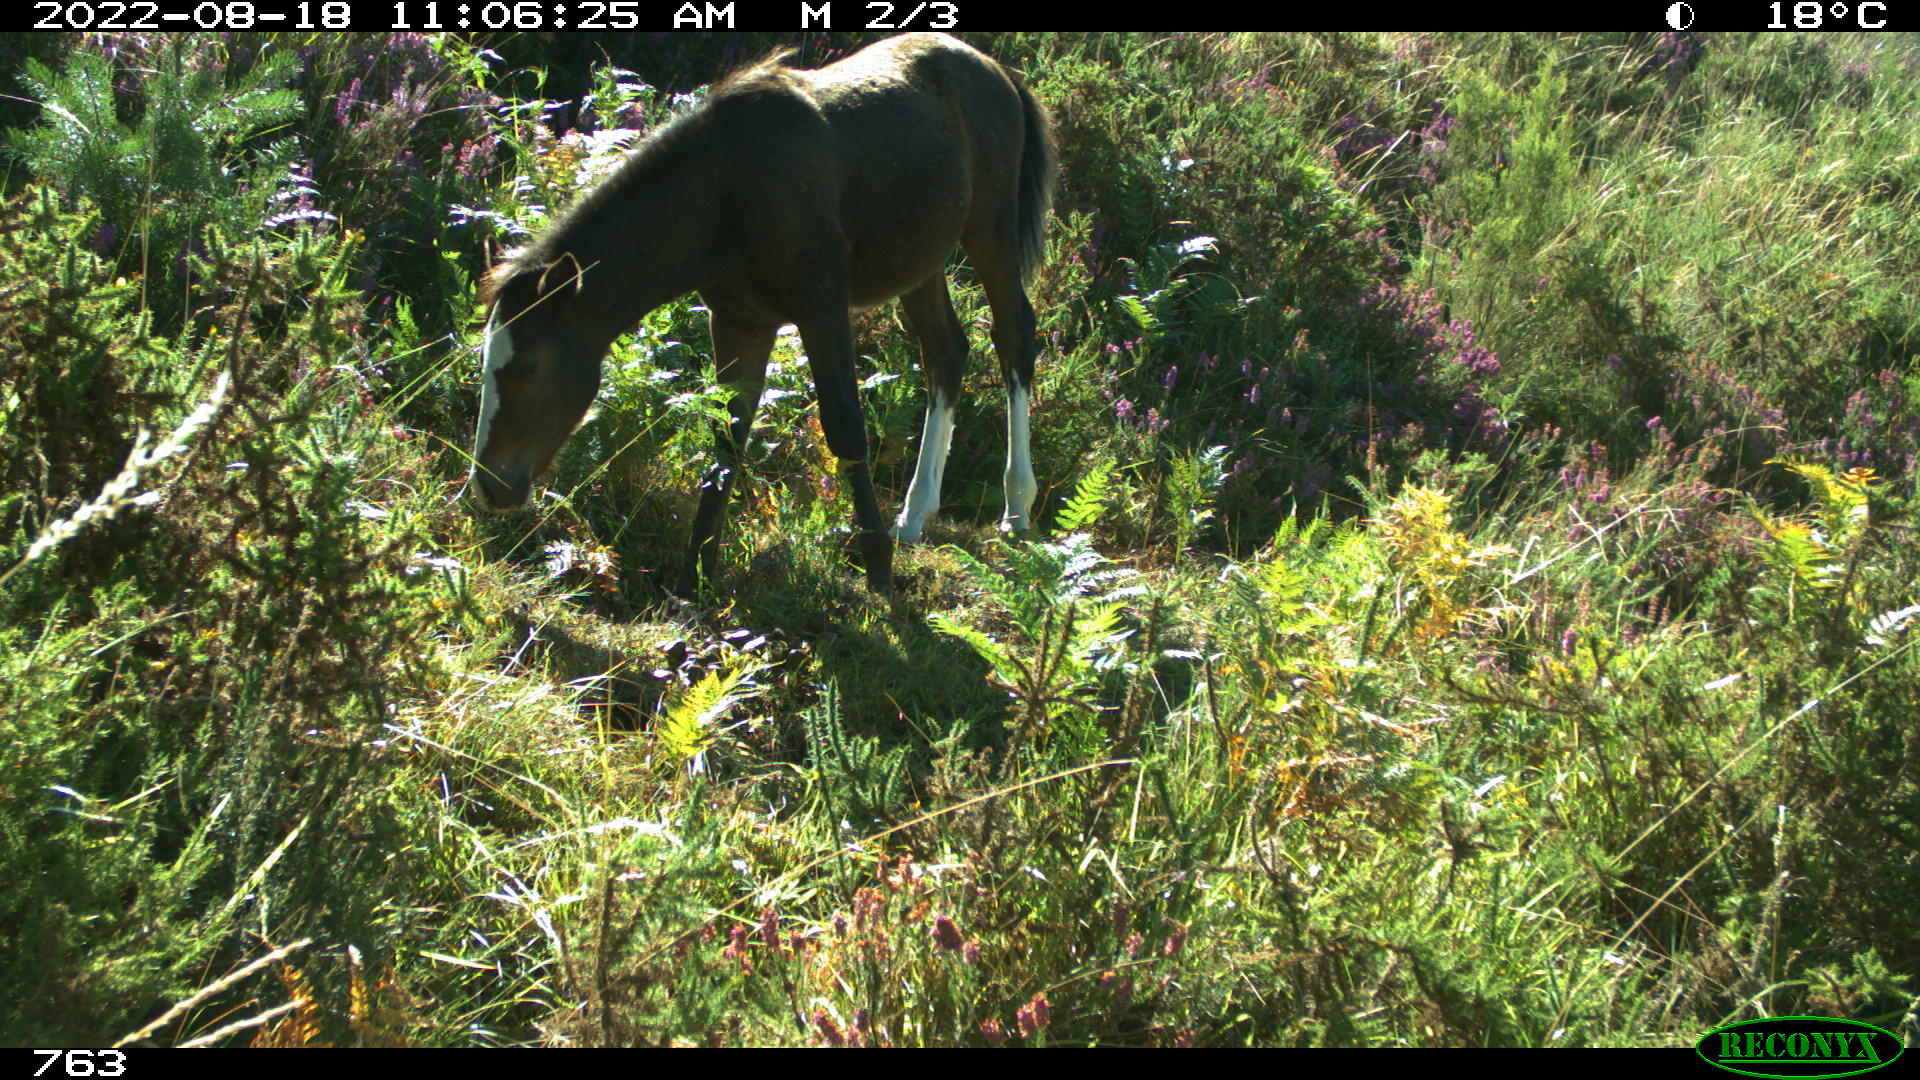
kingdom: Animalia
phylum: Chordata
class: Mammalia
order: Perissodactyla
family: Equidae
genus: Equus
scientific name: Equus caballus
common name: Horse
